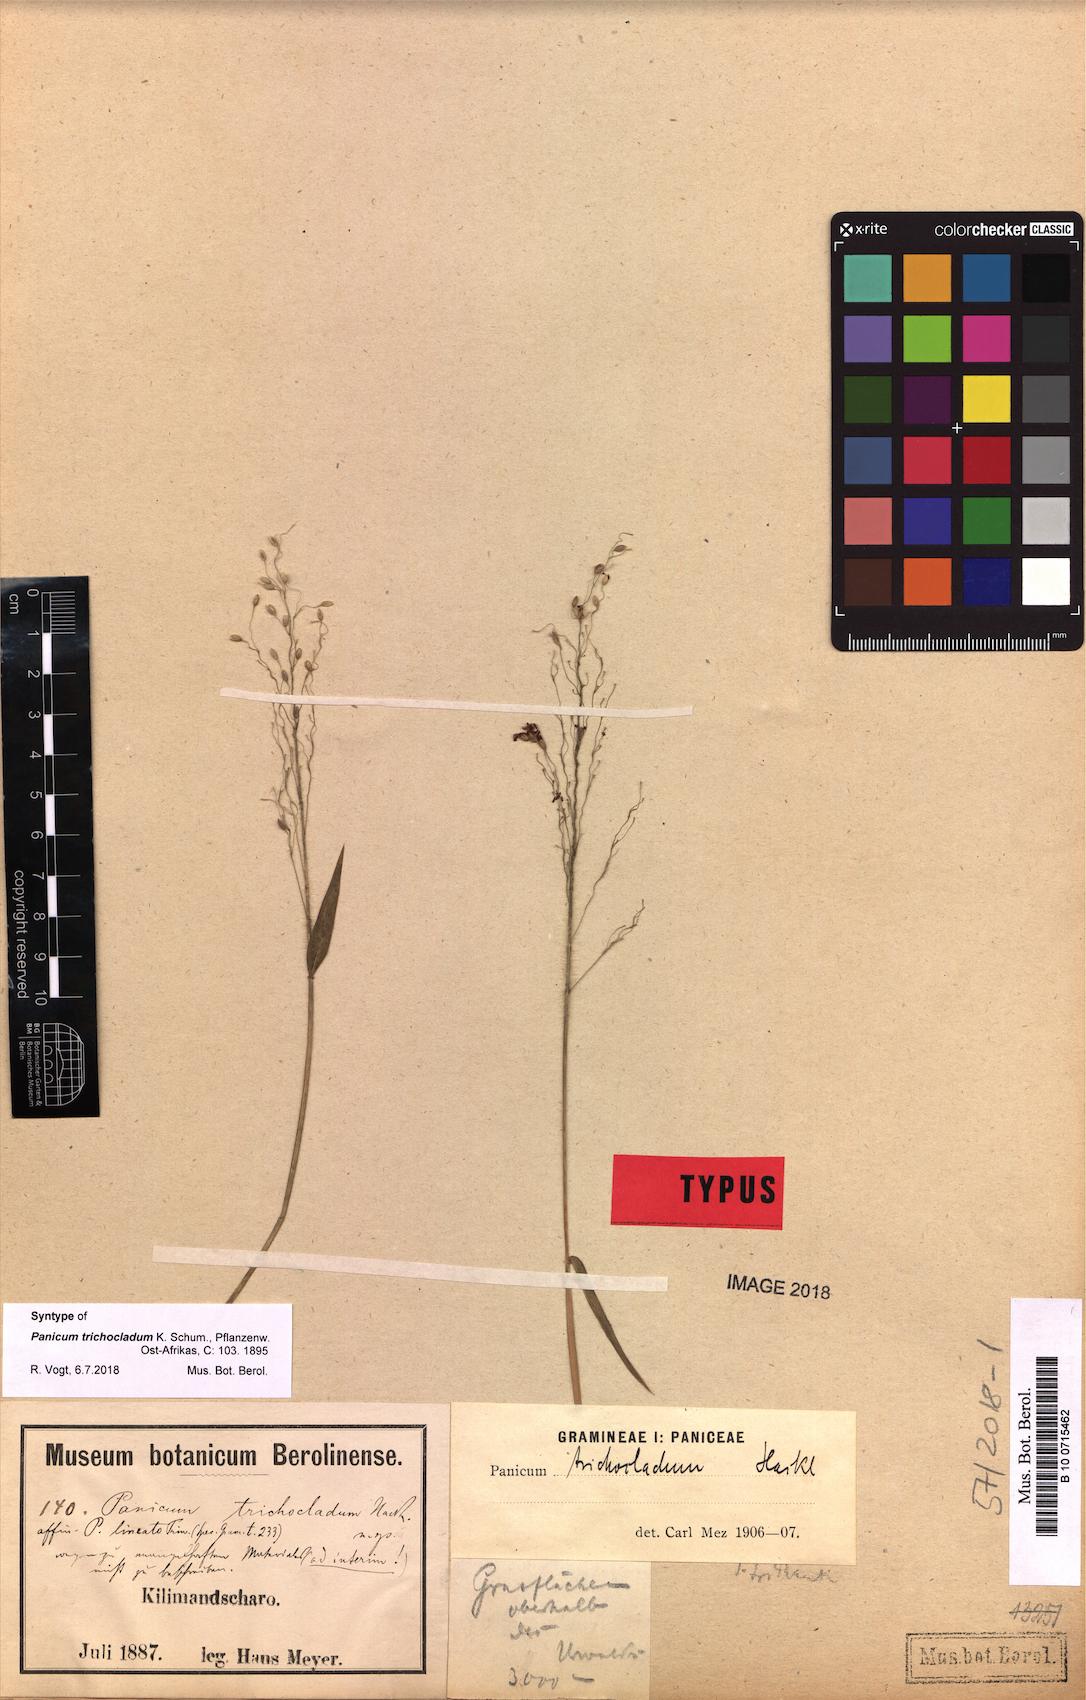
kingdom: Plantae
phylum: Tracheophyta
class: Liliopsida
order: Poales
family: Poaceae
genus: Panicum
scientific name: Panicum trichocladum
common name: Donkey grass
